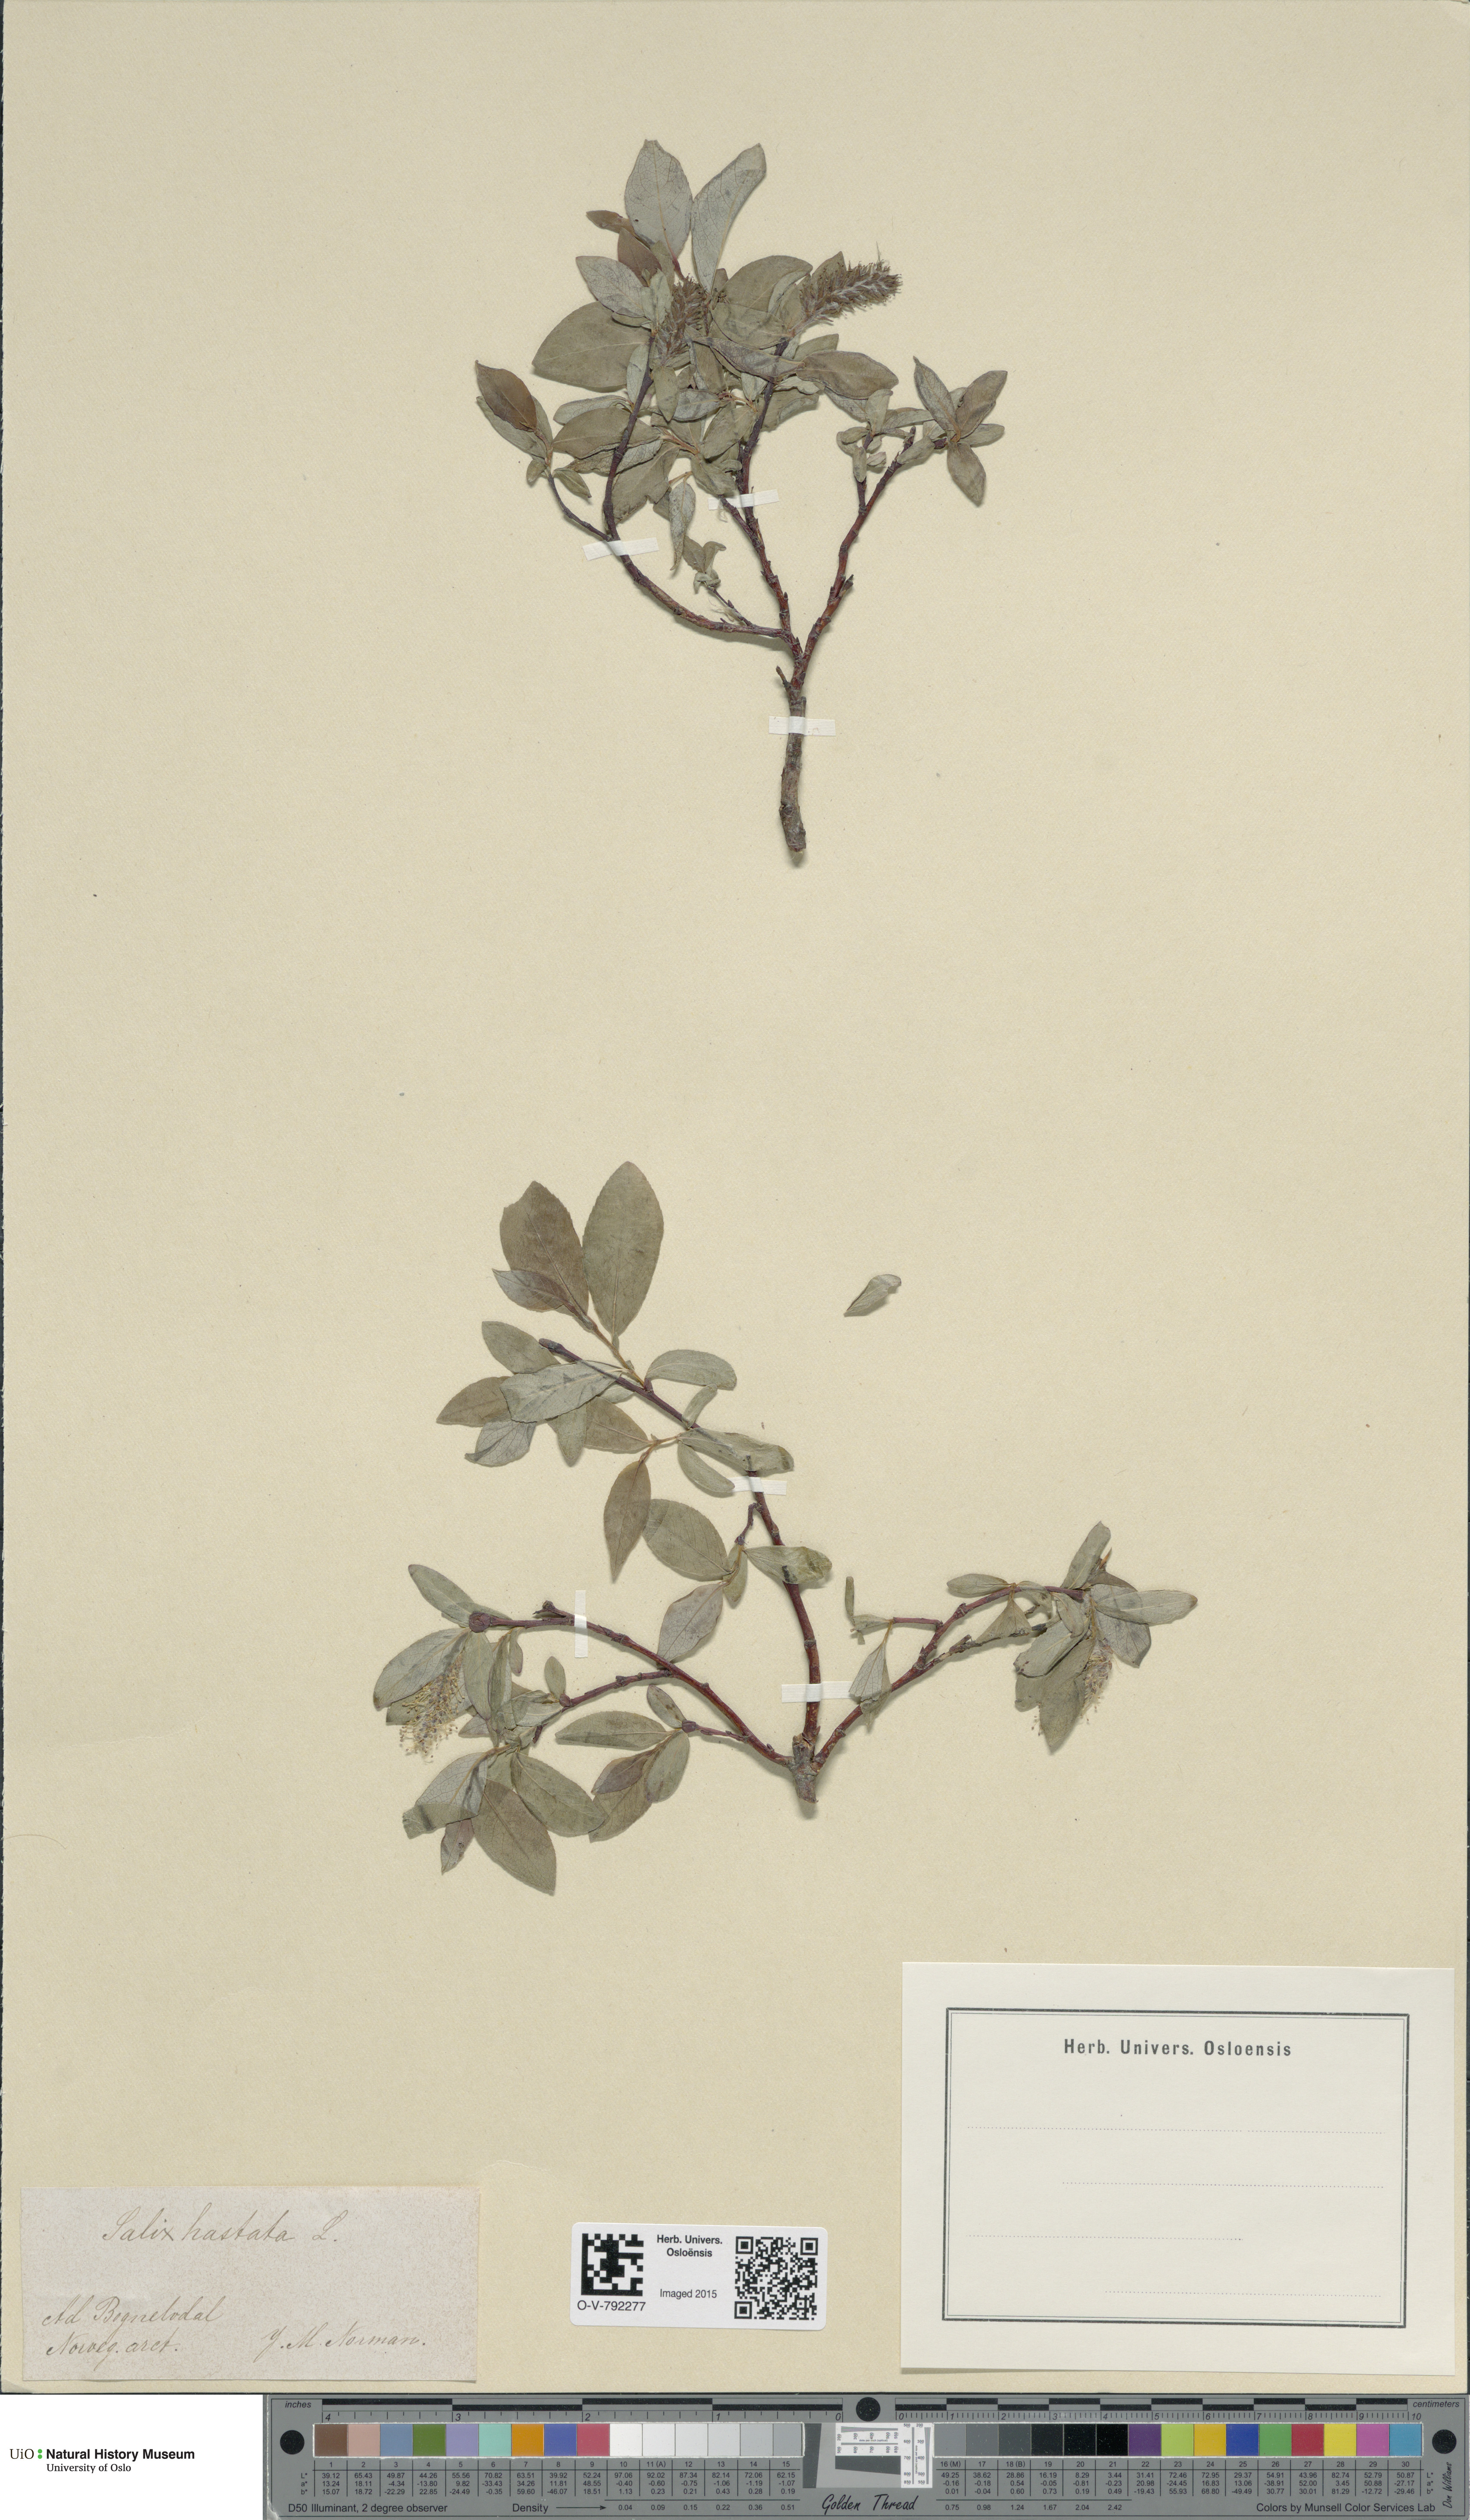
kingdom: Plantae
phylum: Tracheophyta
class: Magnoliopsida
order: Malpighiales
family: Salicaceae
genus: Salix
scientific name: Salix hastata
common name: Halberd willow
